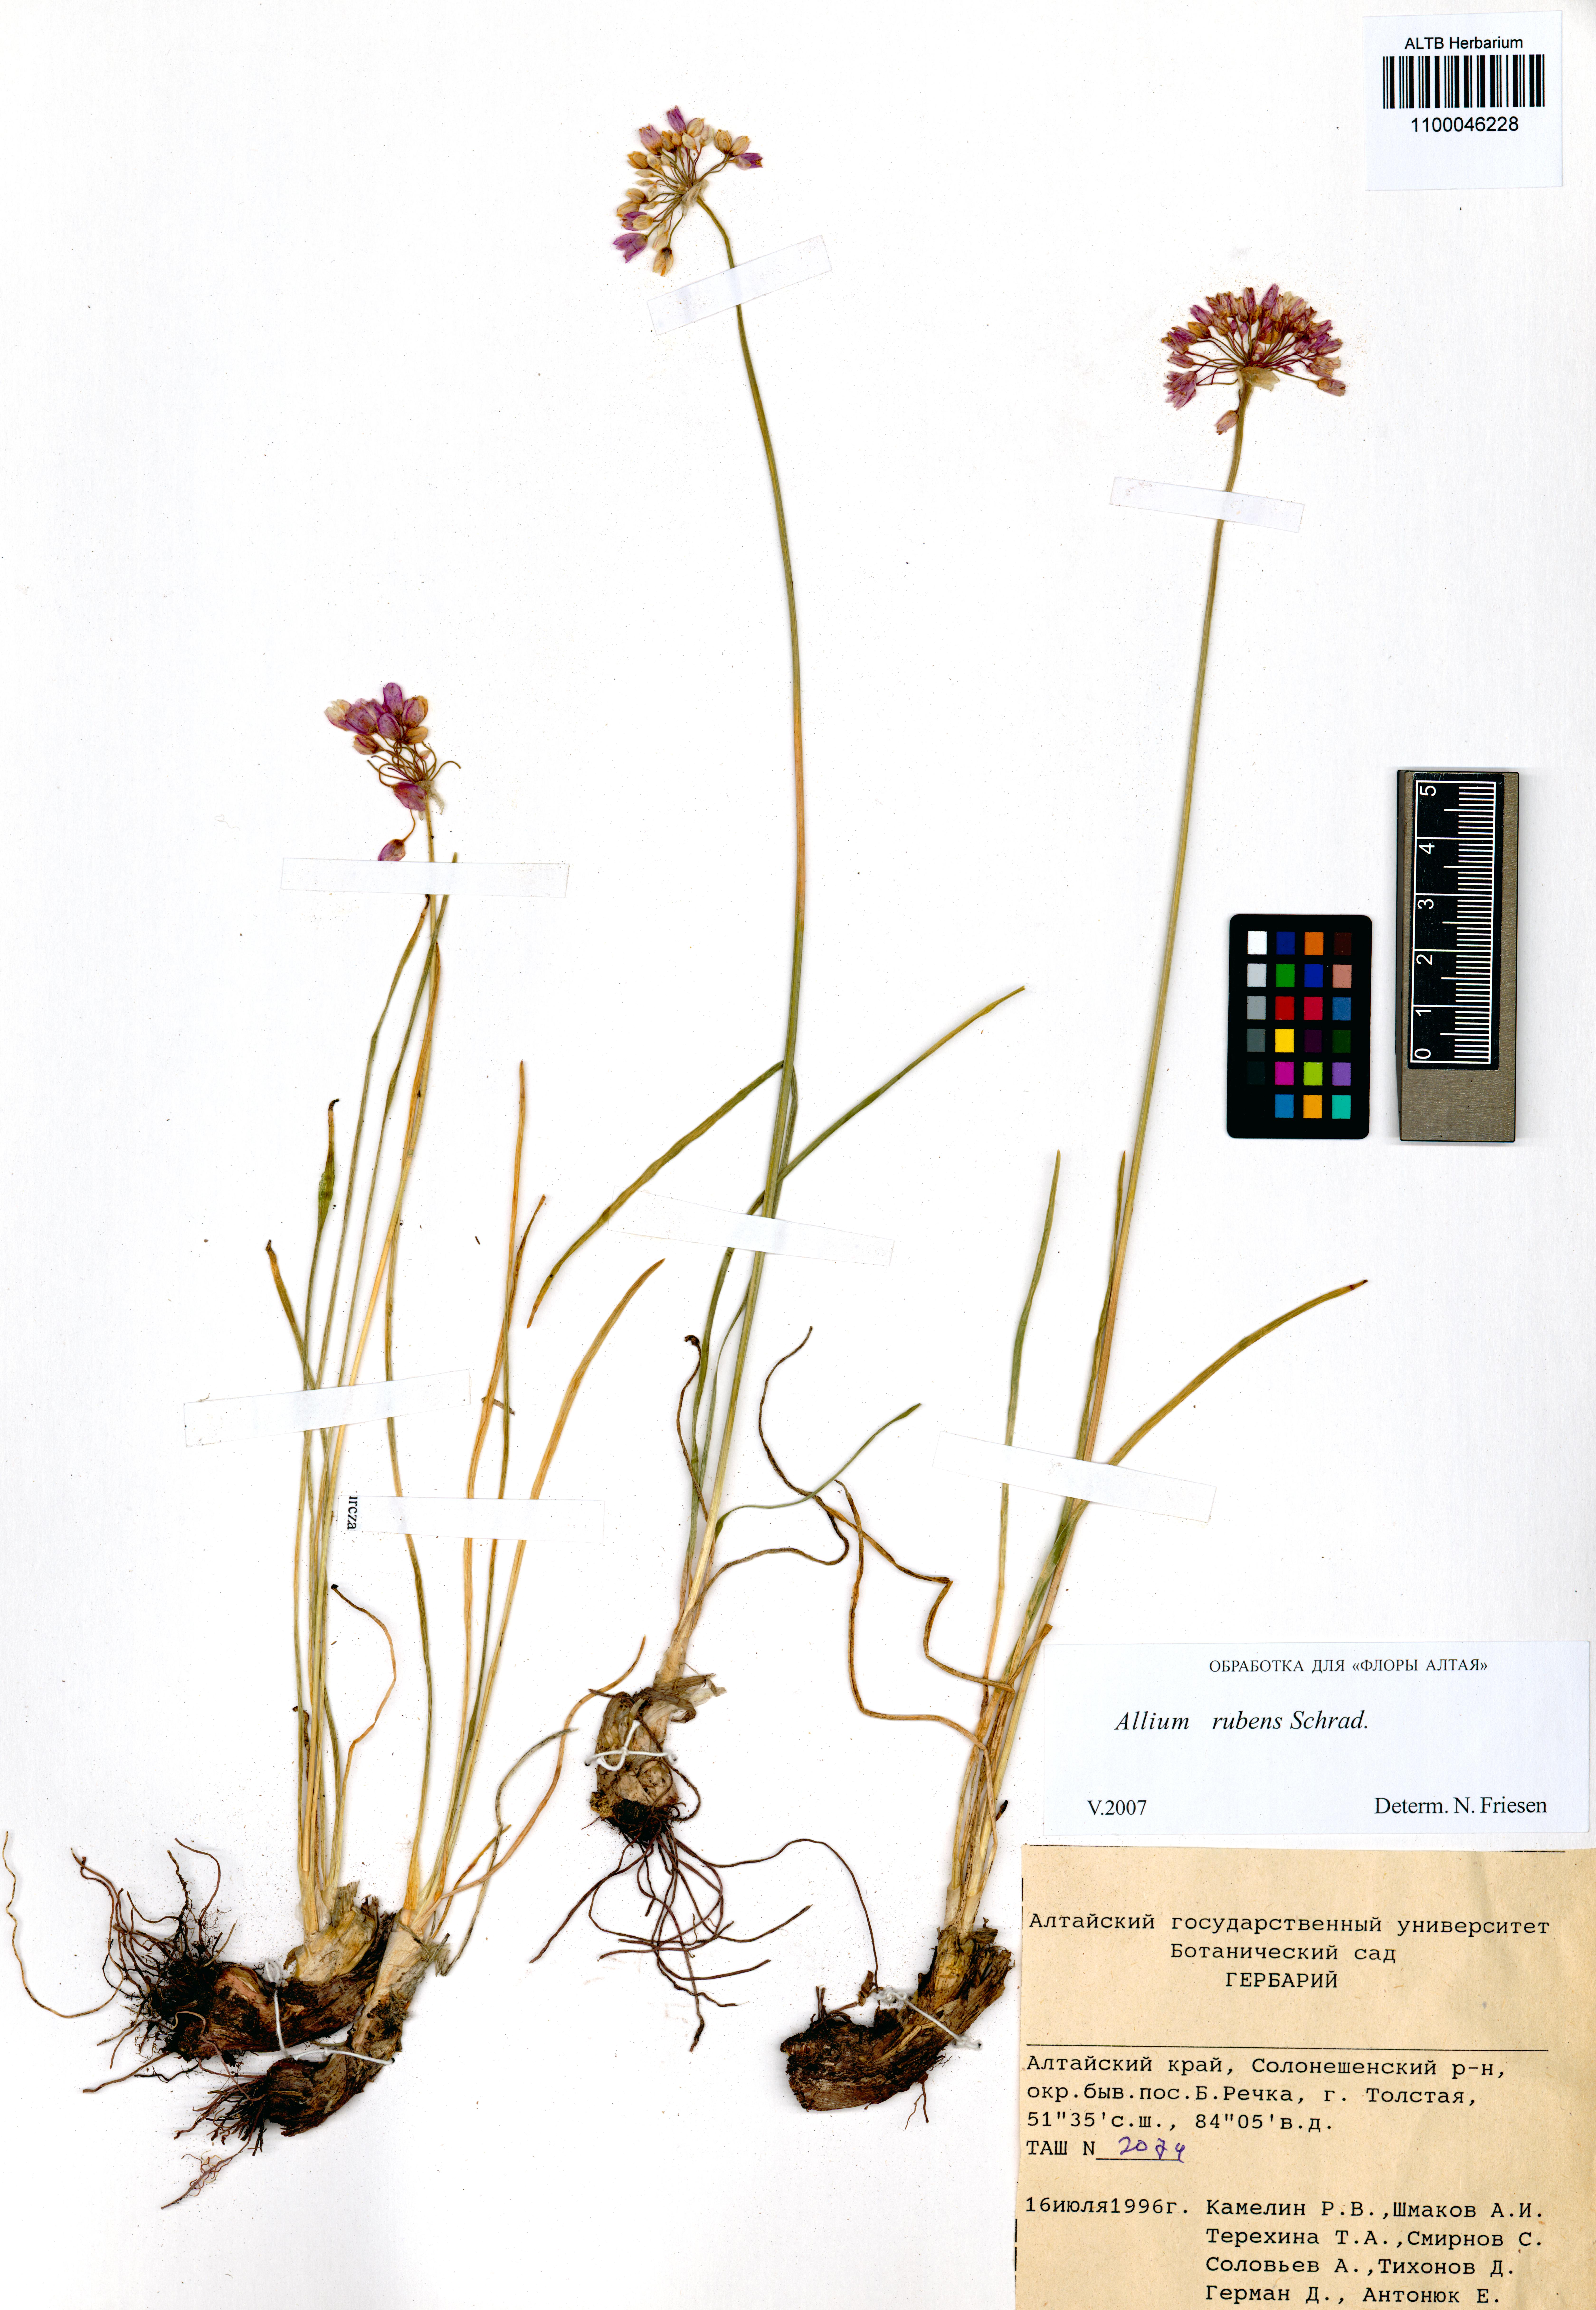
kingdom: Plantae
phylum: Tracheophyta
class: Liliopsida
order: Asparagales
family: Amaryllidaceae
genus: Allium
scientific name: Allium rubens
